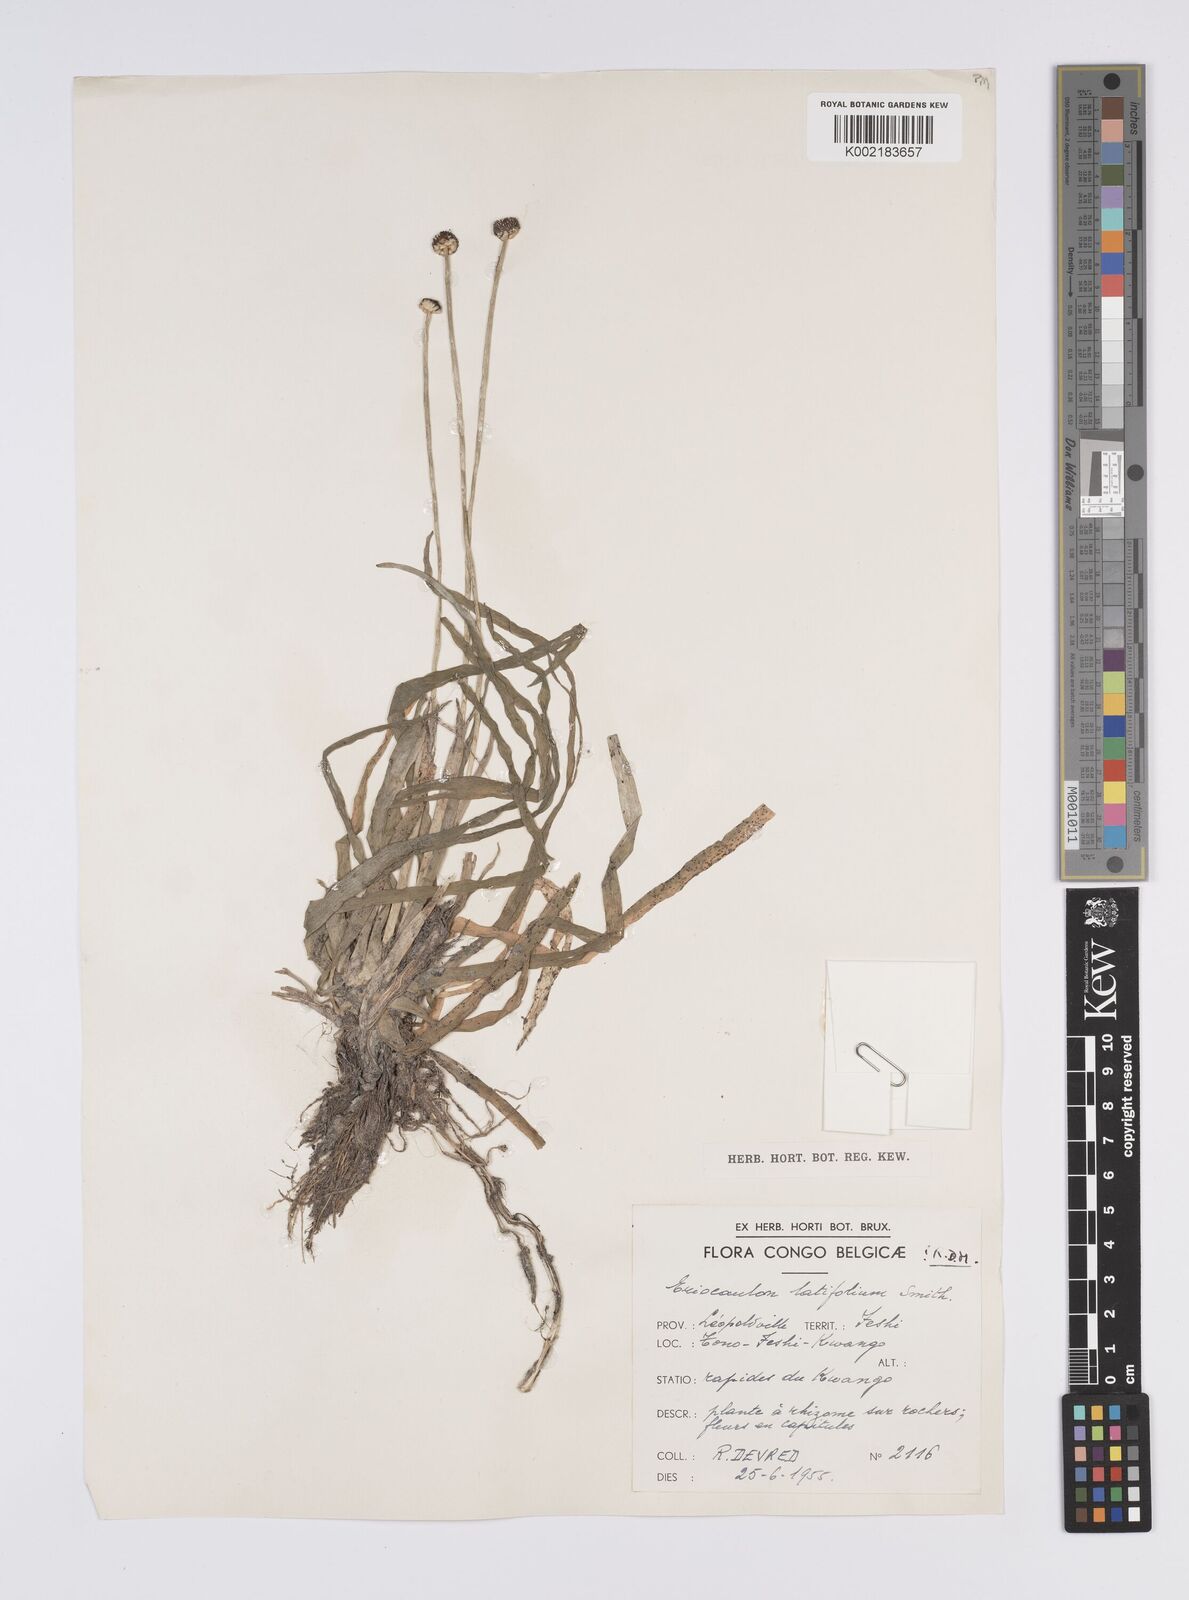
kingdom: Plantae
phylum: Tracheophyta
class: Liliopsida
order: Poales
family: Eriocaulaceae
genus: Eriocaulon
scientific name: Eriocaulon latifolium
